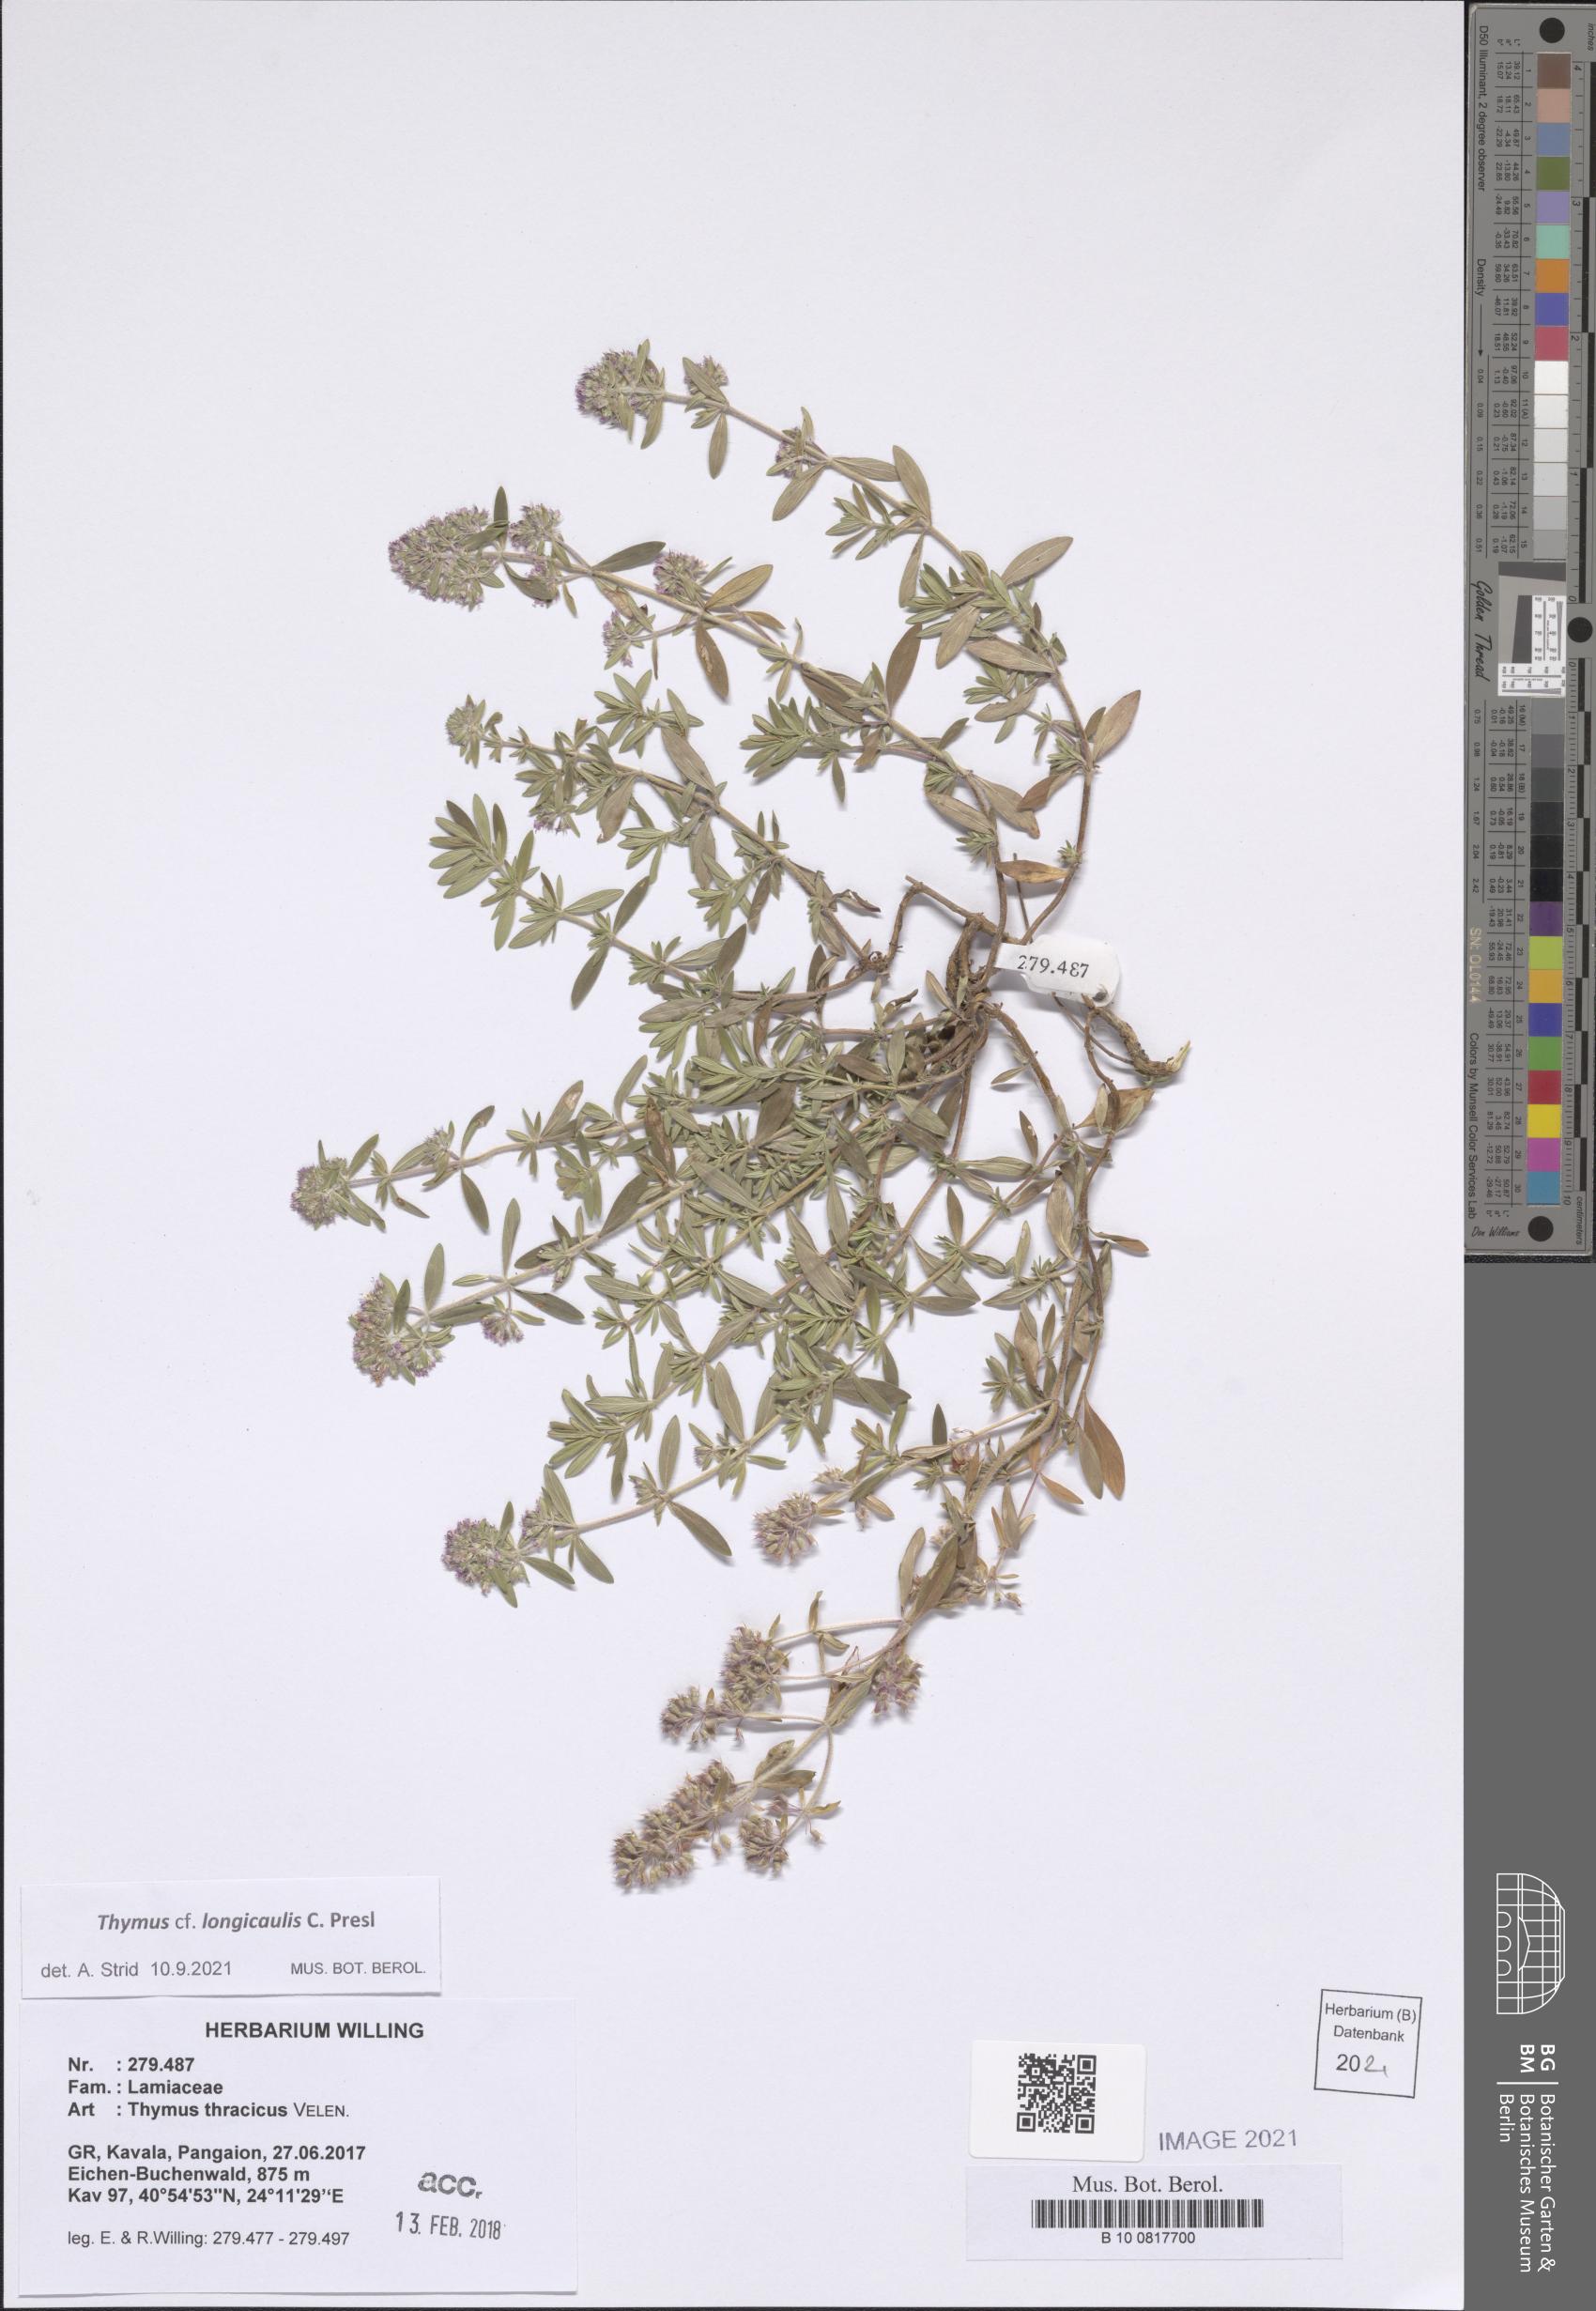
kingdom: Plantae
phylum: Tracheophyta
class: Magnoliopsida
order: Lamiales
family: Lamiaceae
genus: Thymus
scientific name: Thymus longicaulis
